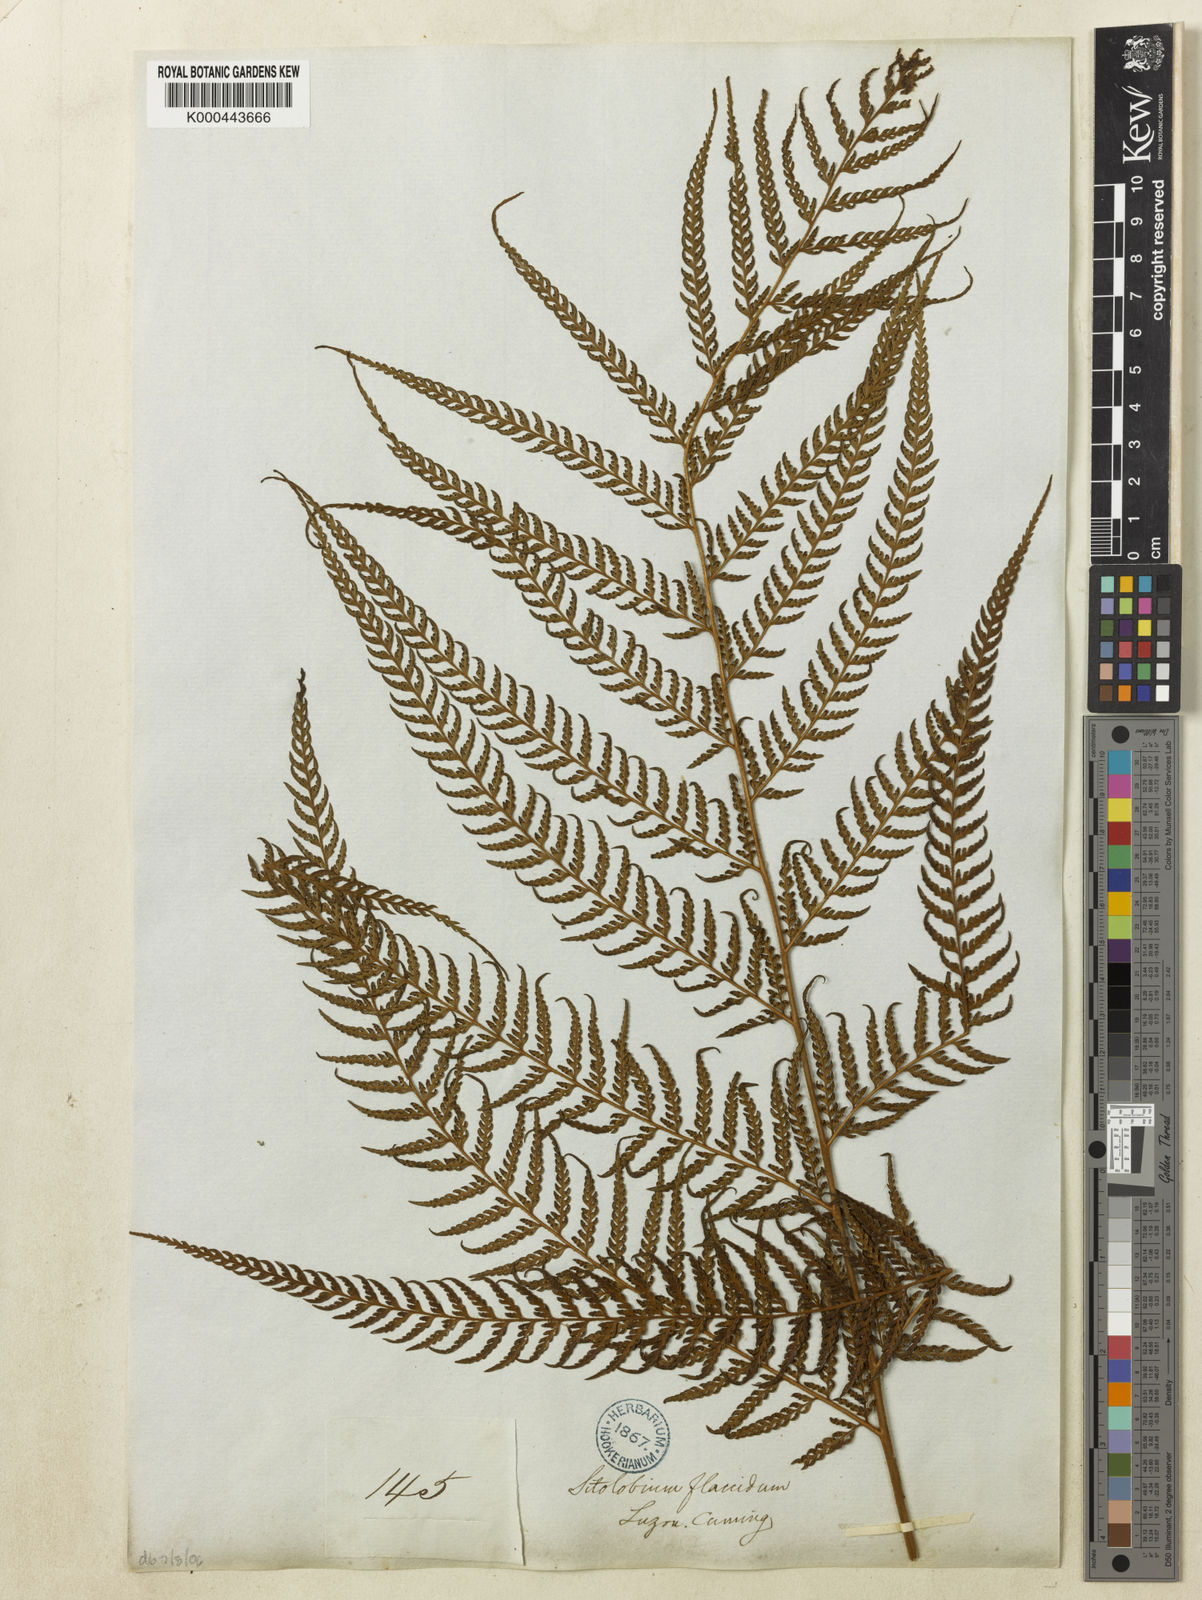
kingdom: Plantae
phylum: Tracheophyta
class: Polypodiopsida
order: Polypodiales
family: Dennstaedtiaceae
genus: Microlepia
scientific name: Microlepia smithii
